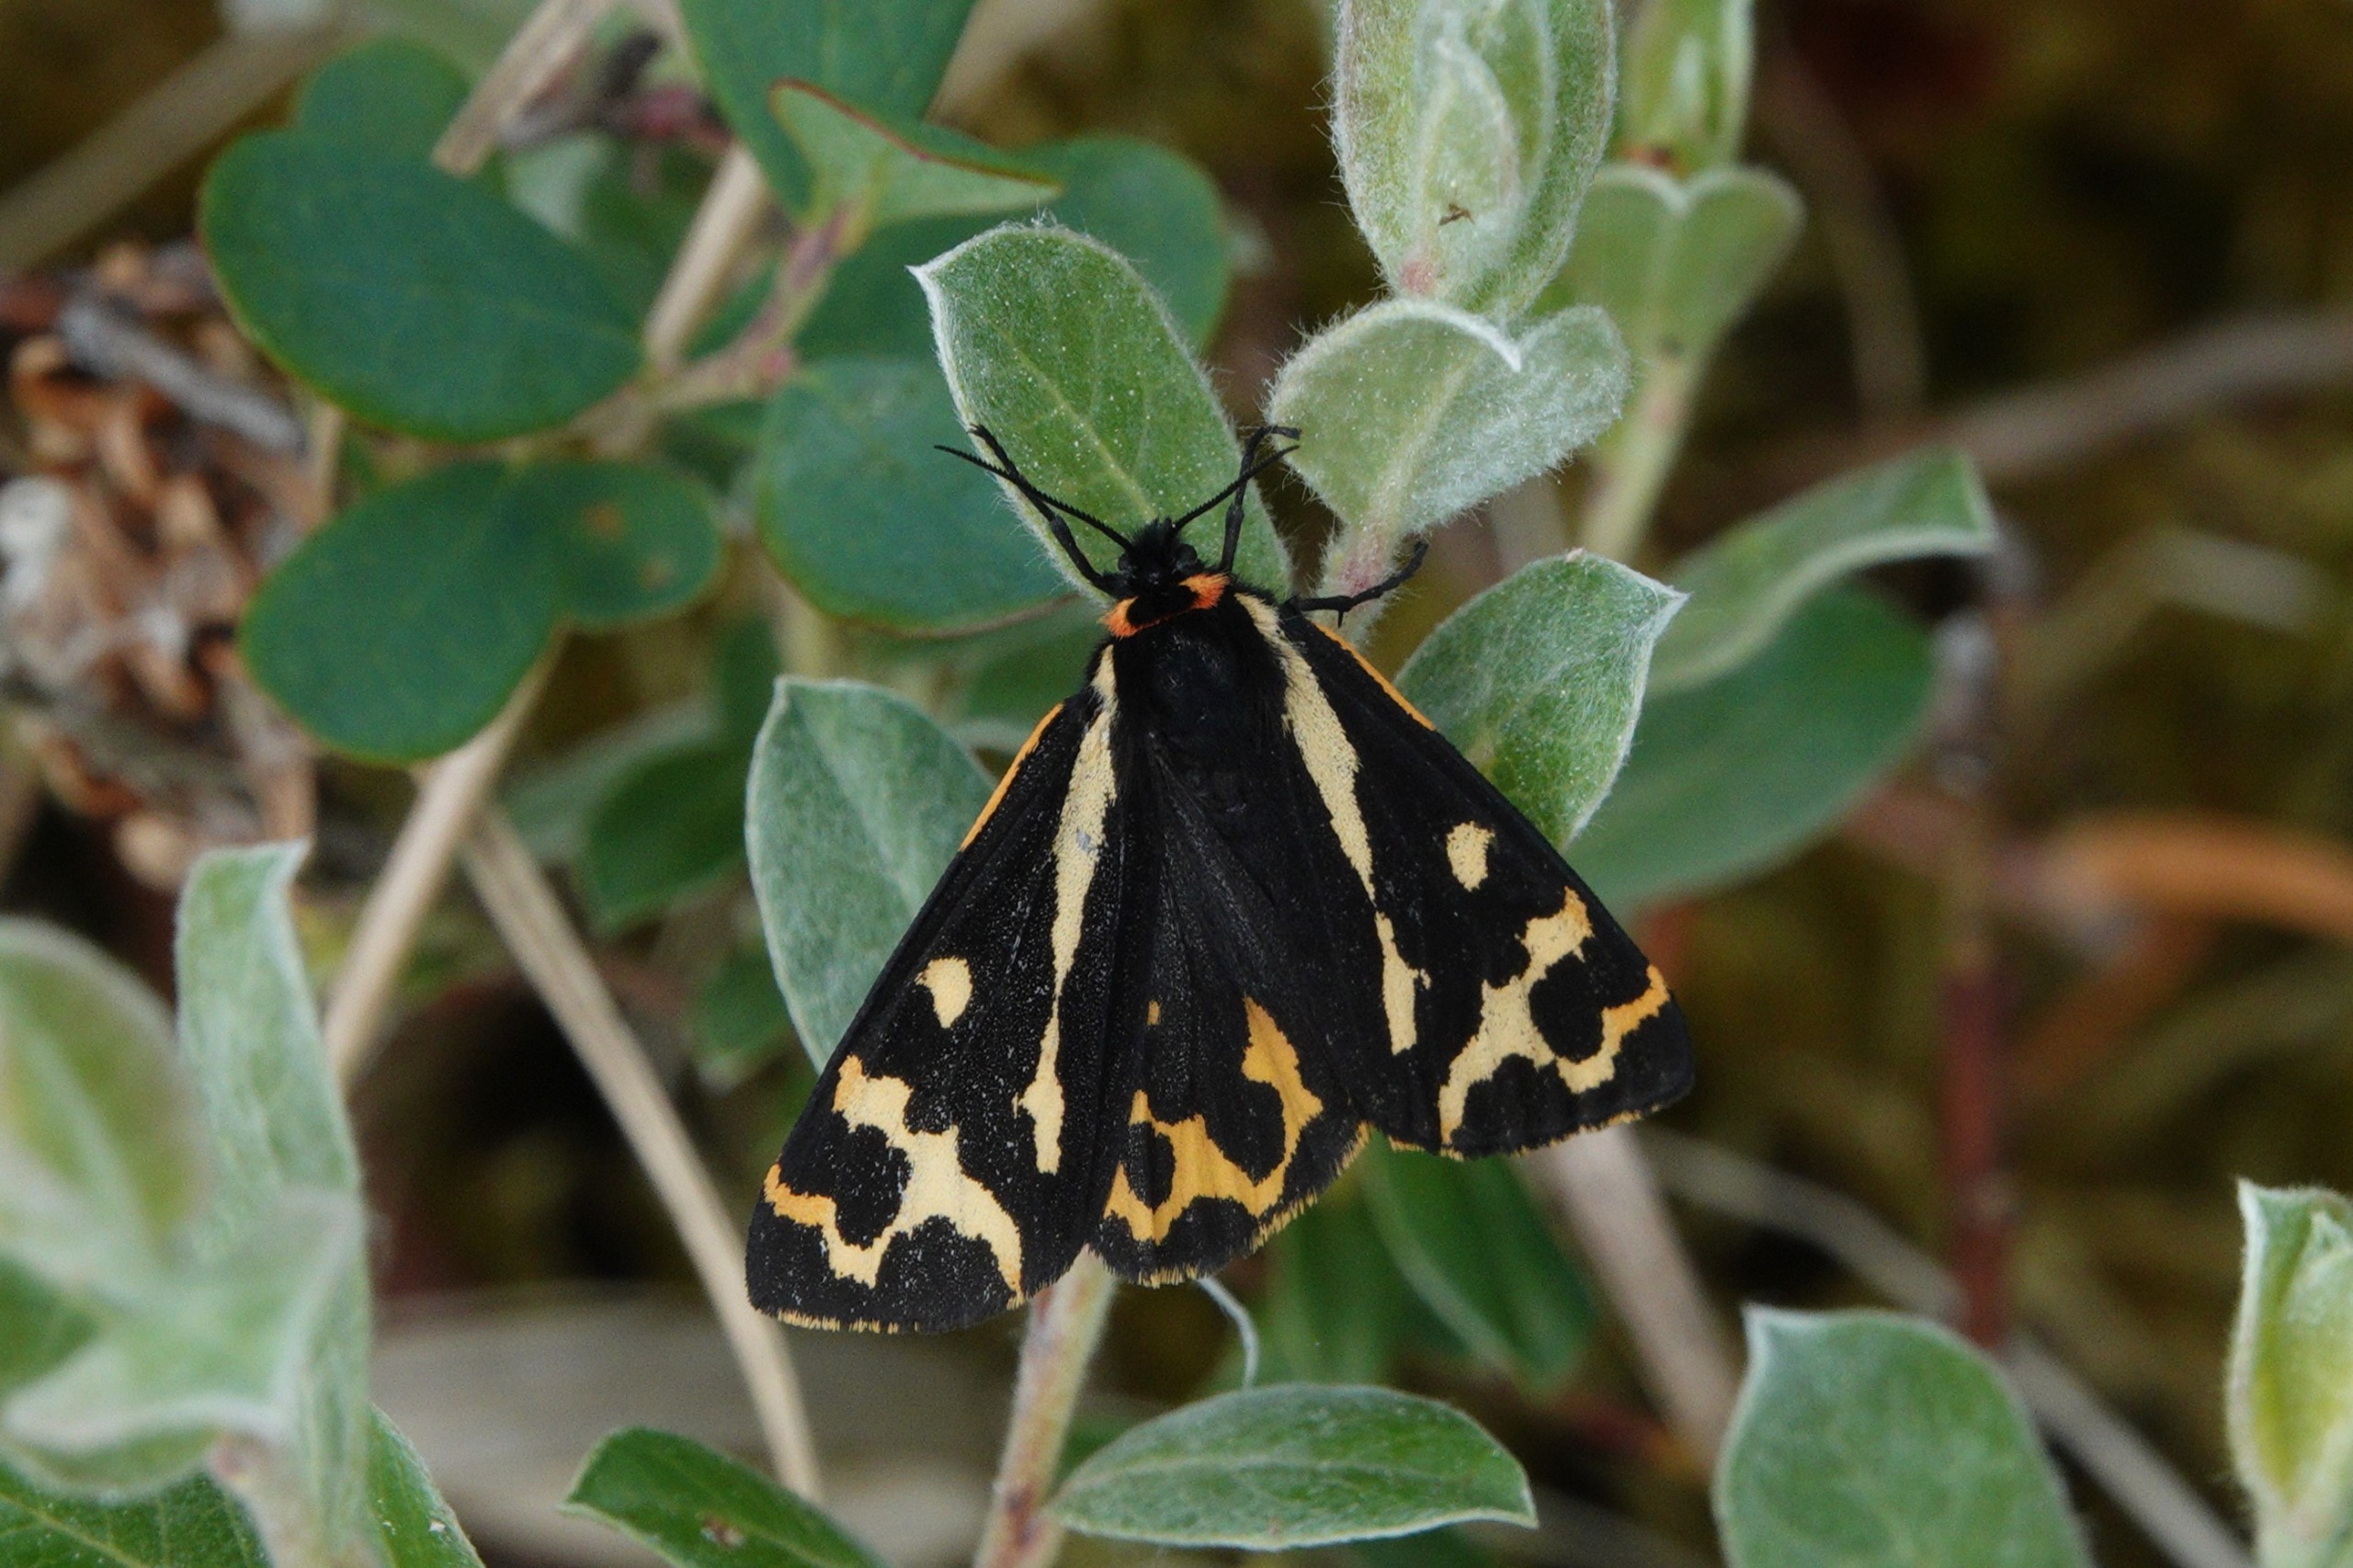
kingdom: Animalia
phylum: Arthropoda
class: Insecta
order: Lepidoptera
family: Erebidae
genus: Parasemia
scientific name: Parasemia plantaginis
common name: Skovbjørn
